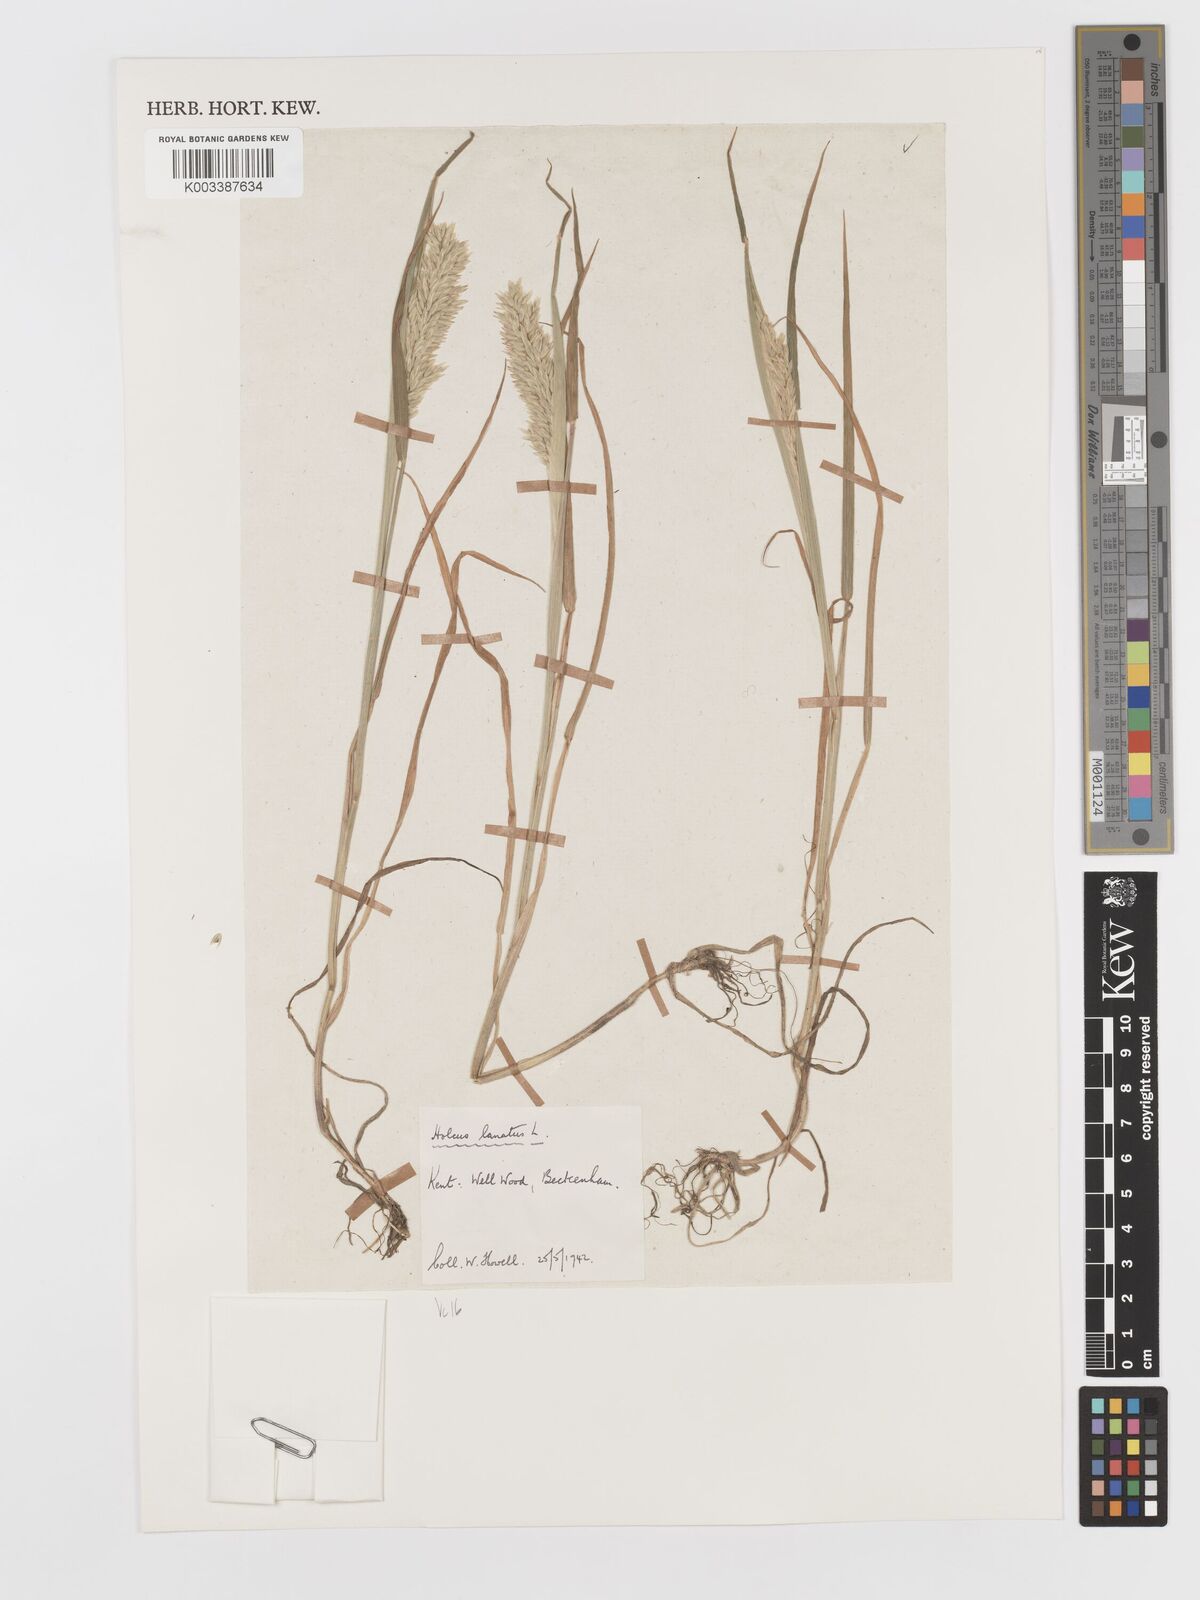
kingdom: Plantae
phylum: Tracheophyta
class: Liliopsida
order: Poales
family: Poaceae
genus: Holcus
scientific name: Holcus lanatus
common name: Yorkshire-fog
